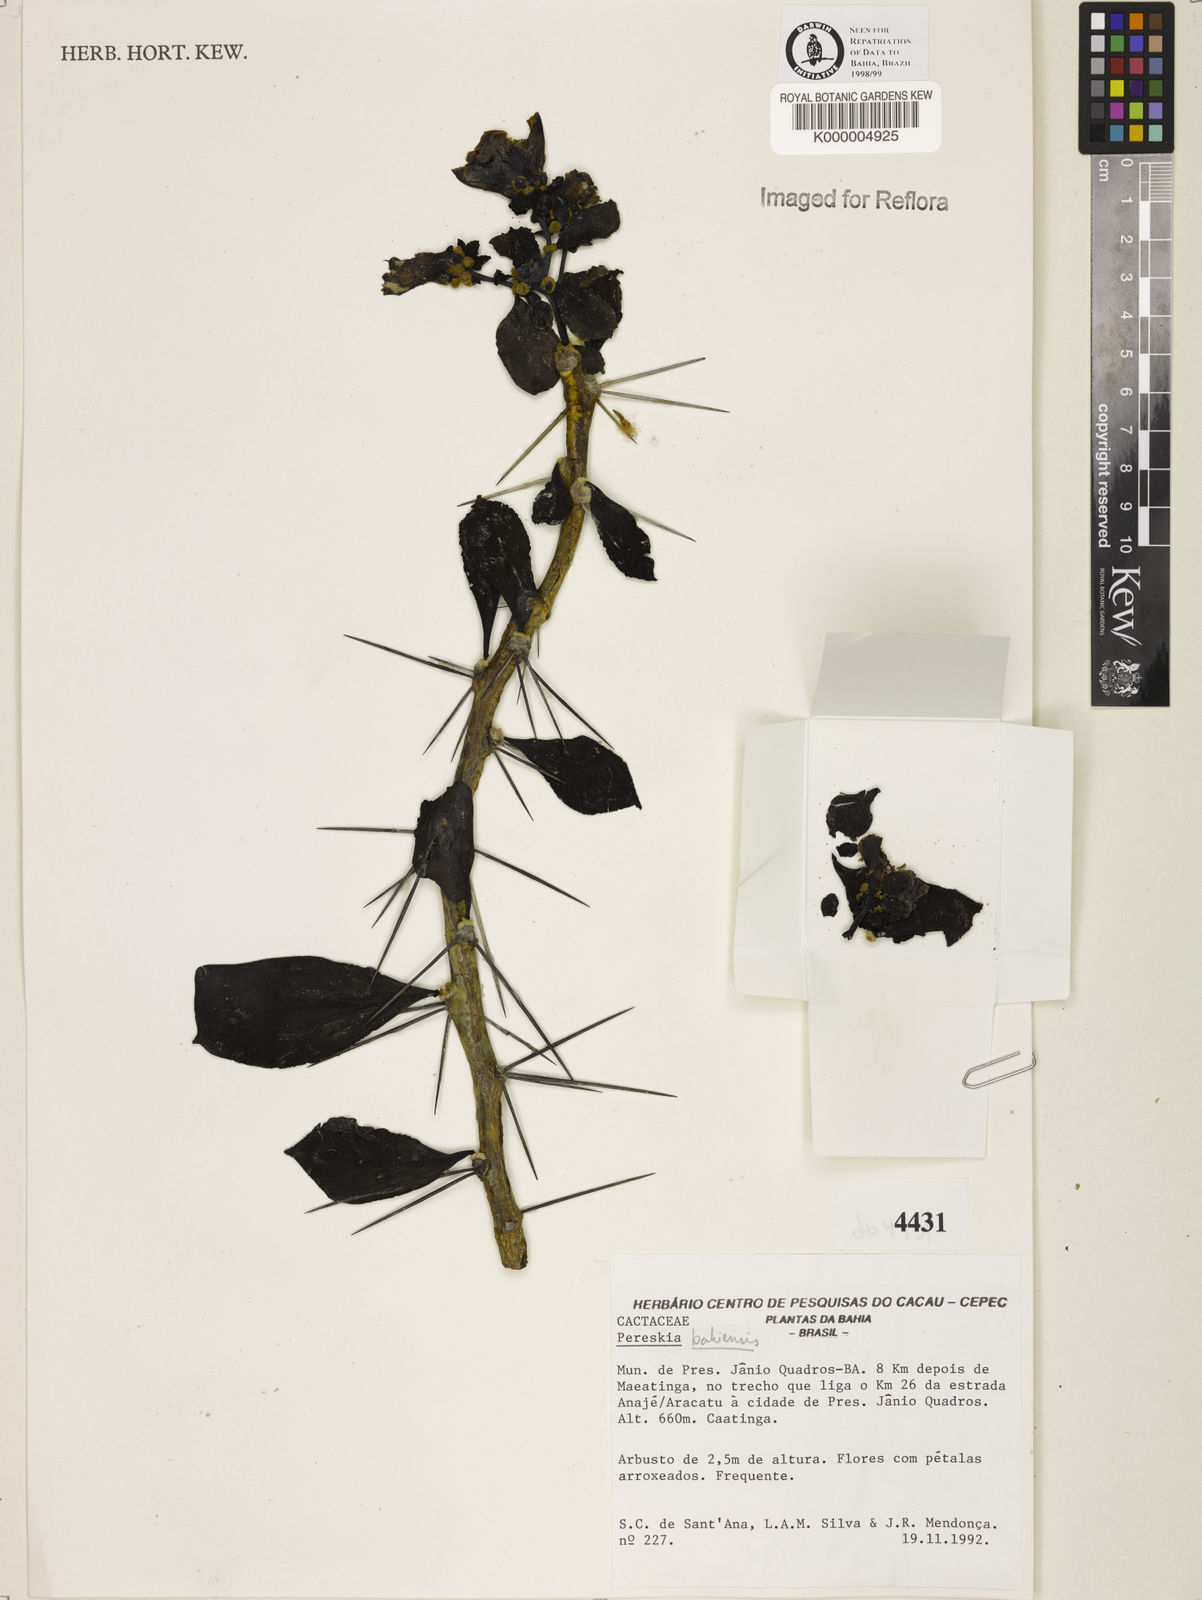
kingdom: Plantae
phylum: Tracheophyta
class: Magnoliopsida
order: Caryophyllales
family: Cactaceae
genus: Pereskia
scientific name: Pereskia
